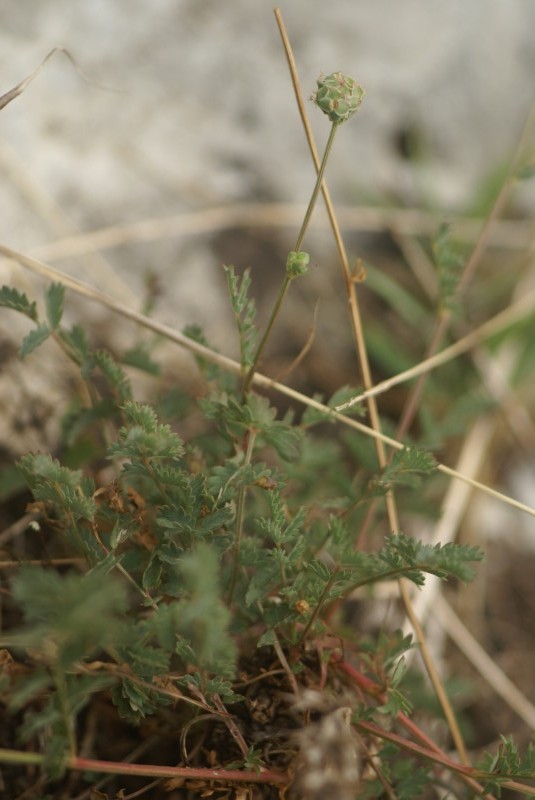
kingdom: Plantae
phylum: Tracheophyta
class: Magnoliopsida
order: Rosales
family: Rosaceae
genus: Sanguisorba
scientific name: Sanguisorba
